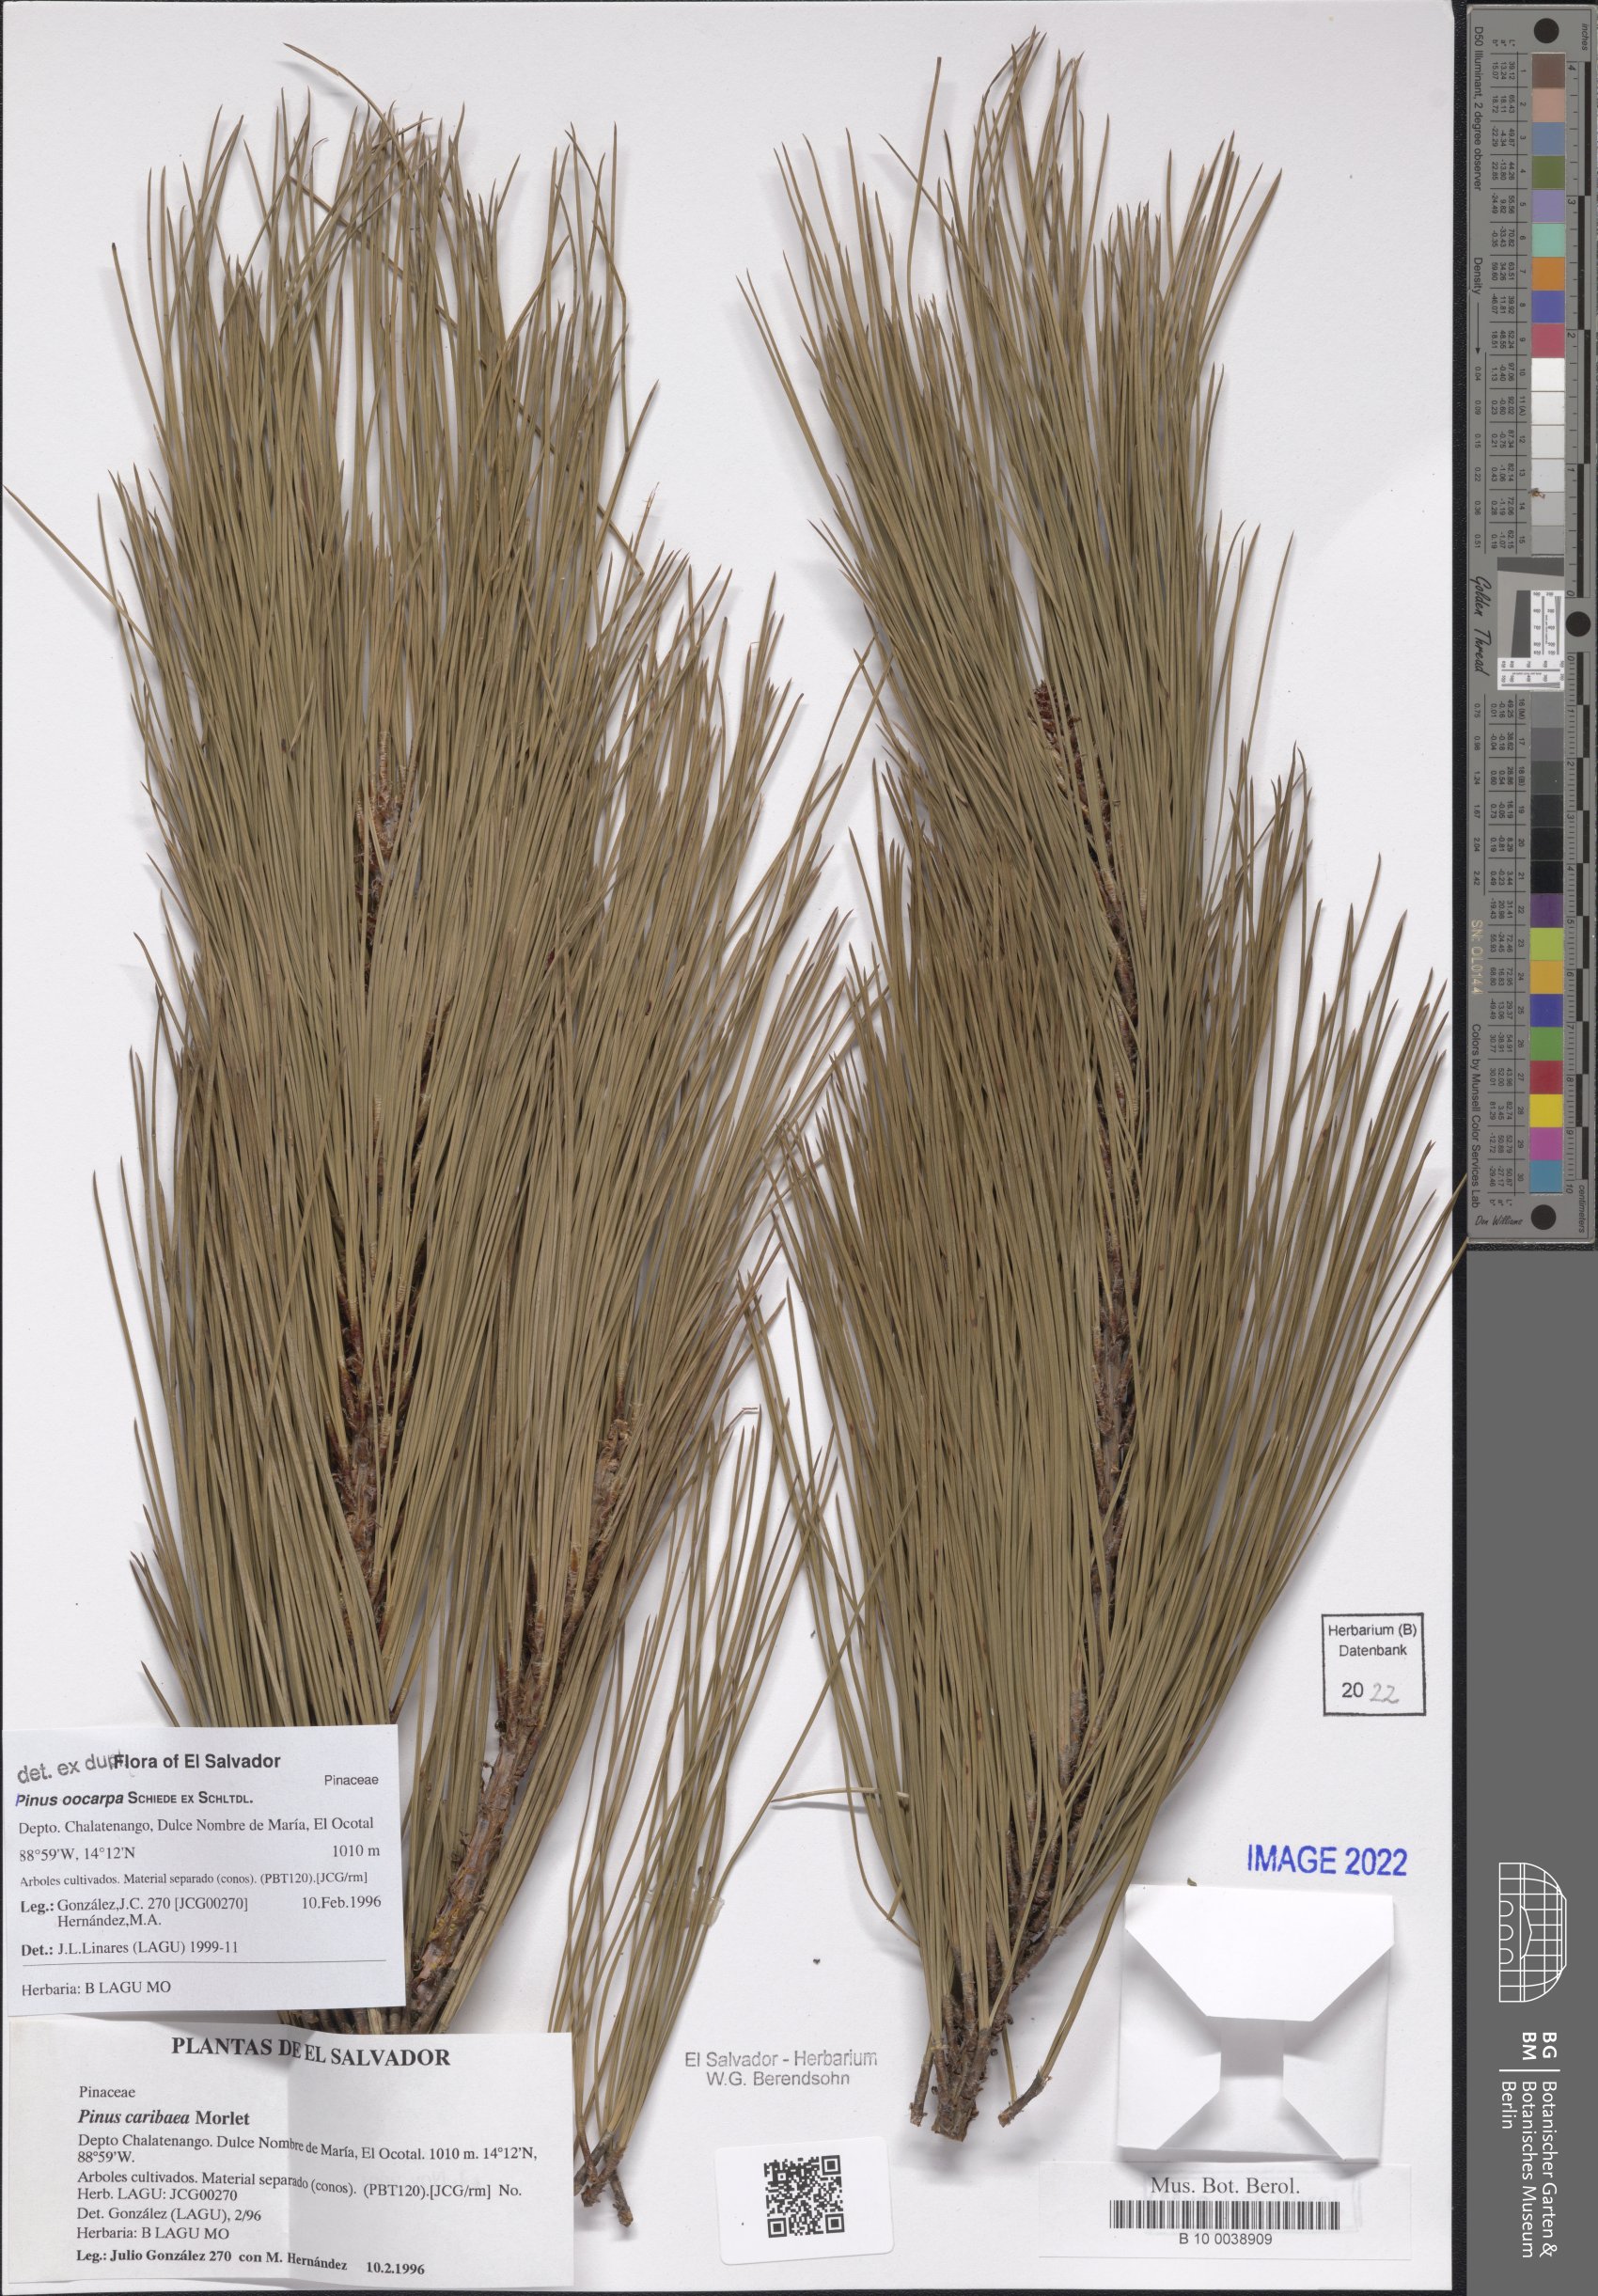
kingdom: Plantae
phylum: Tracheophyta
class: Pinopsida
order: Pinales
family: Pinaceae
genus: Pinus
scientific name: Pinus oocarpa
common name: Egg-cone pine
